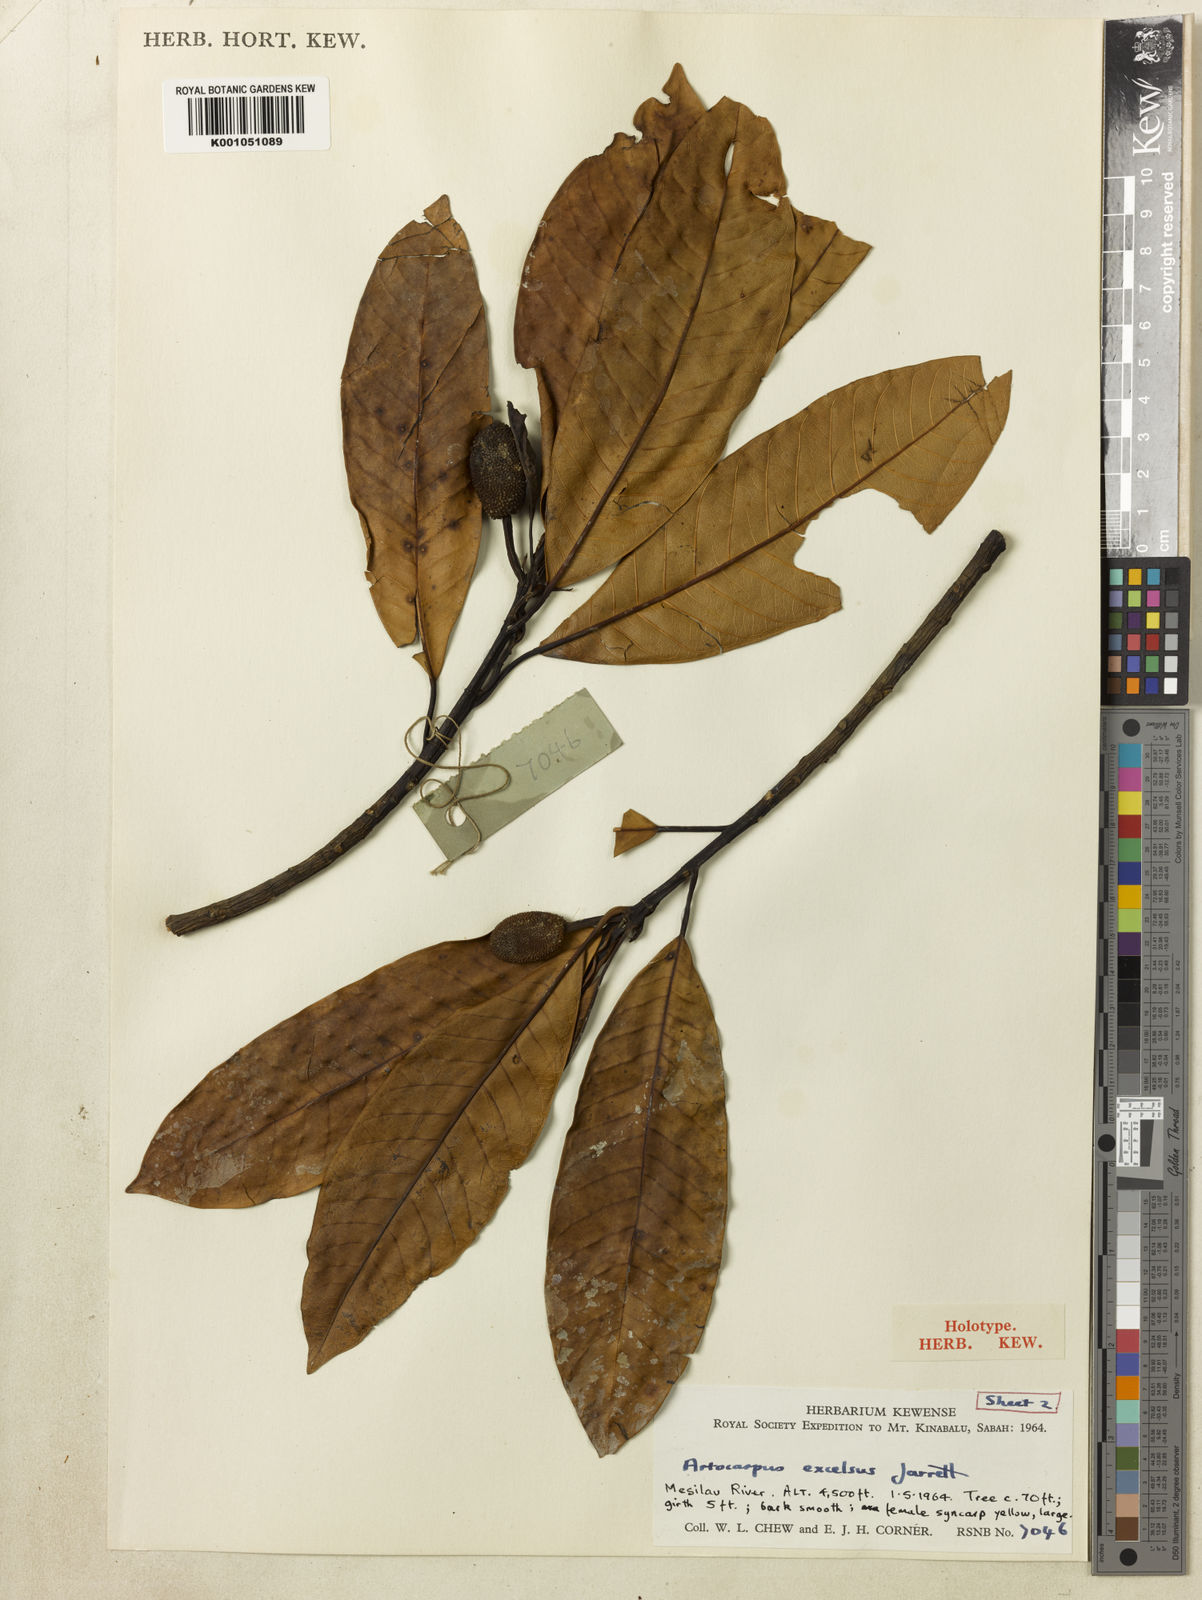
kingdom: Plantae
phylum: Tracheophyta
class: Magnoliopsida
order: Rosales
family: Moraceae
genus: Artocarpus
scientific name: Artocarpus excelsus
